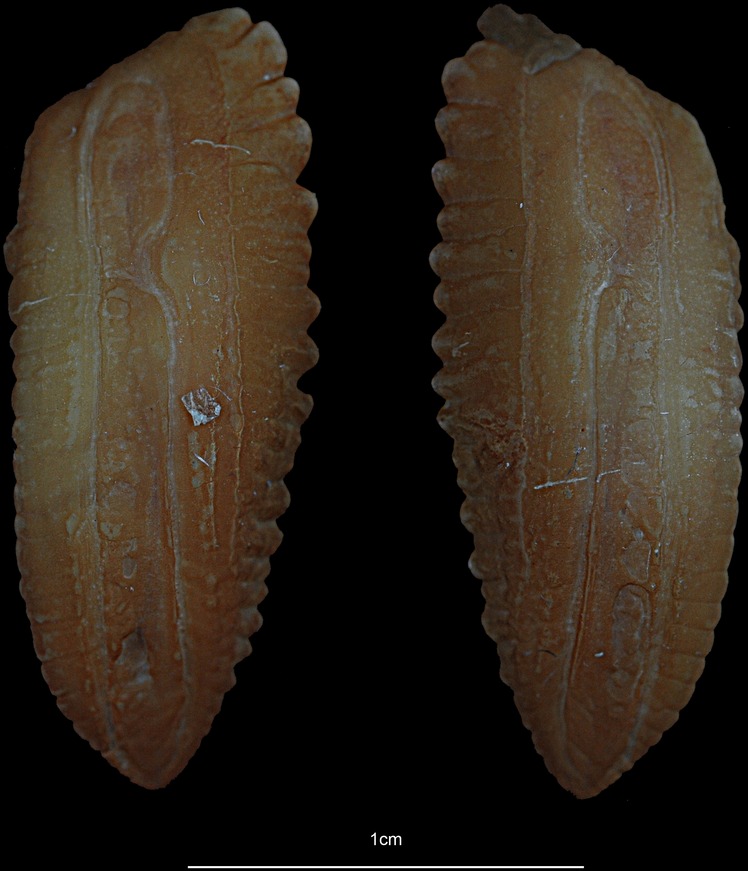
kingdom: Animalia
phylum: Chordata
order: Gadiformes
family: Gadidae
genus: Melanogrammus
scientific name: Melanogrammus aeglefinus
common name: Haddock
